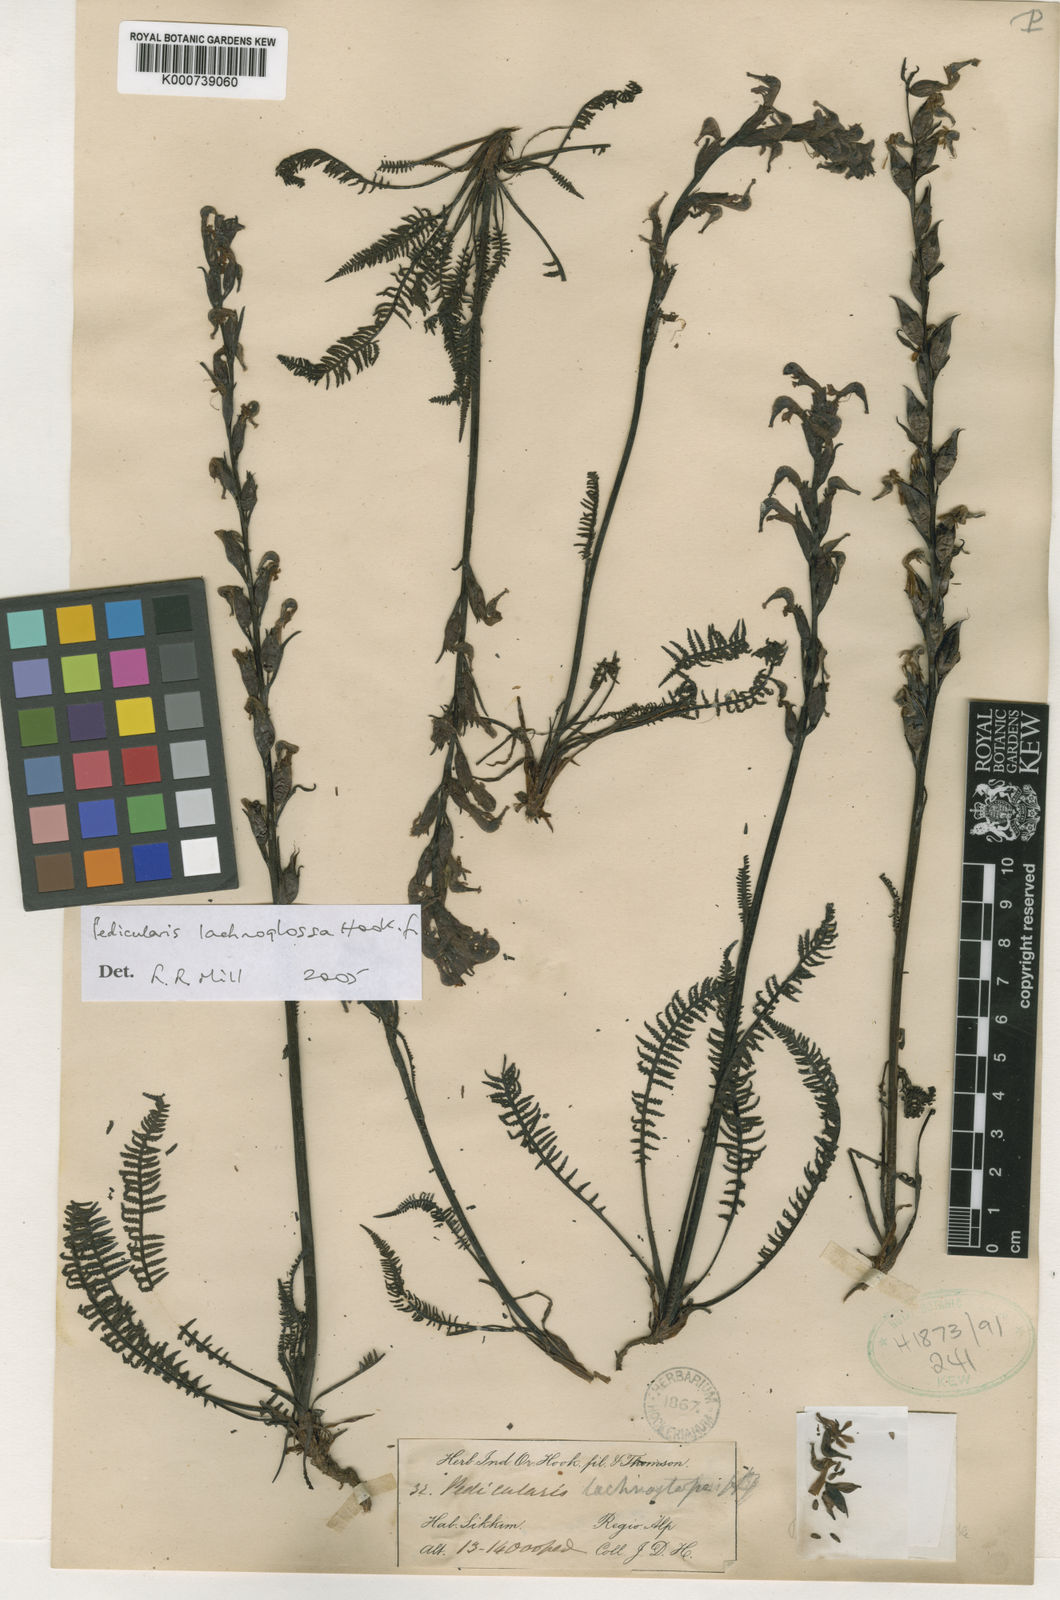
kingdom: Plantae
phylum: Tracheophyta
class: Magnoliopsida
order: Lamiales
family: Orobanchaceae
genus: Pedicularis
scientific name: Pedicularis lachnoglossa
